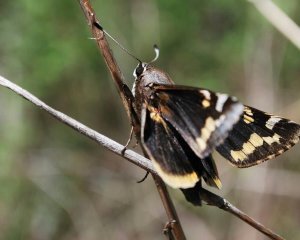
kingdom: Animalia
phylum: Arthropoda
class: Insecta
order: Lepidoptera
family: Hesperiidae
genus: Megathymus
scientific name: Megathymus yuccae
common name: Yucca Giant-Skipper
